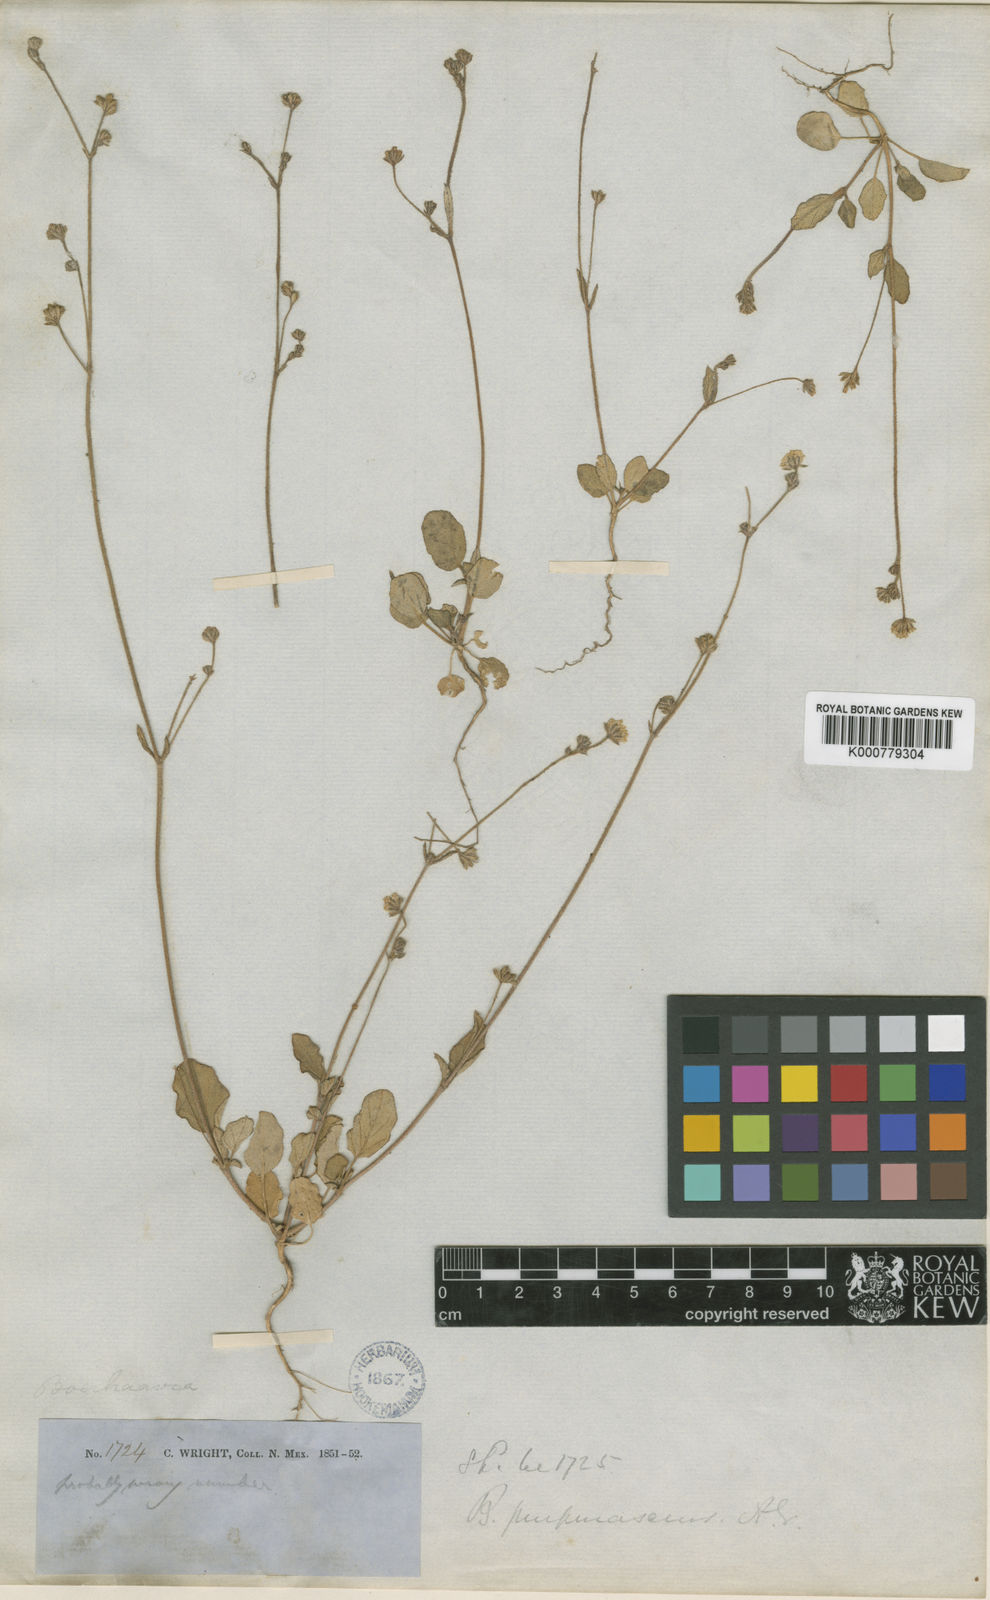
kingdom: Plantae
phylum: Tracheophyta
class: Magnoliopsida
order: Caryophyllales
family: Nyctaginaceae
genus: Boerhavia
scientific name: Boerhavia purpurascens
